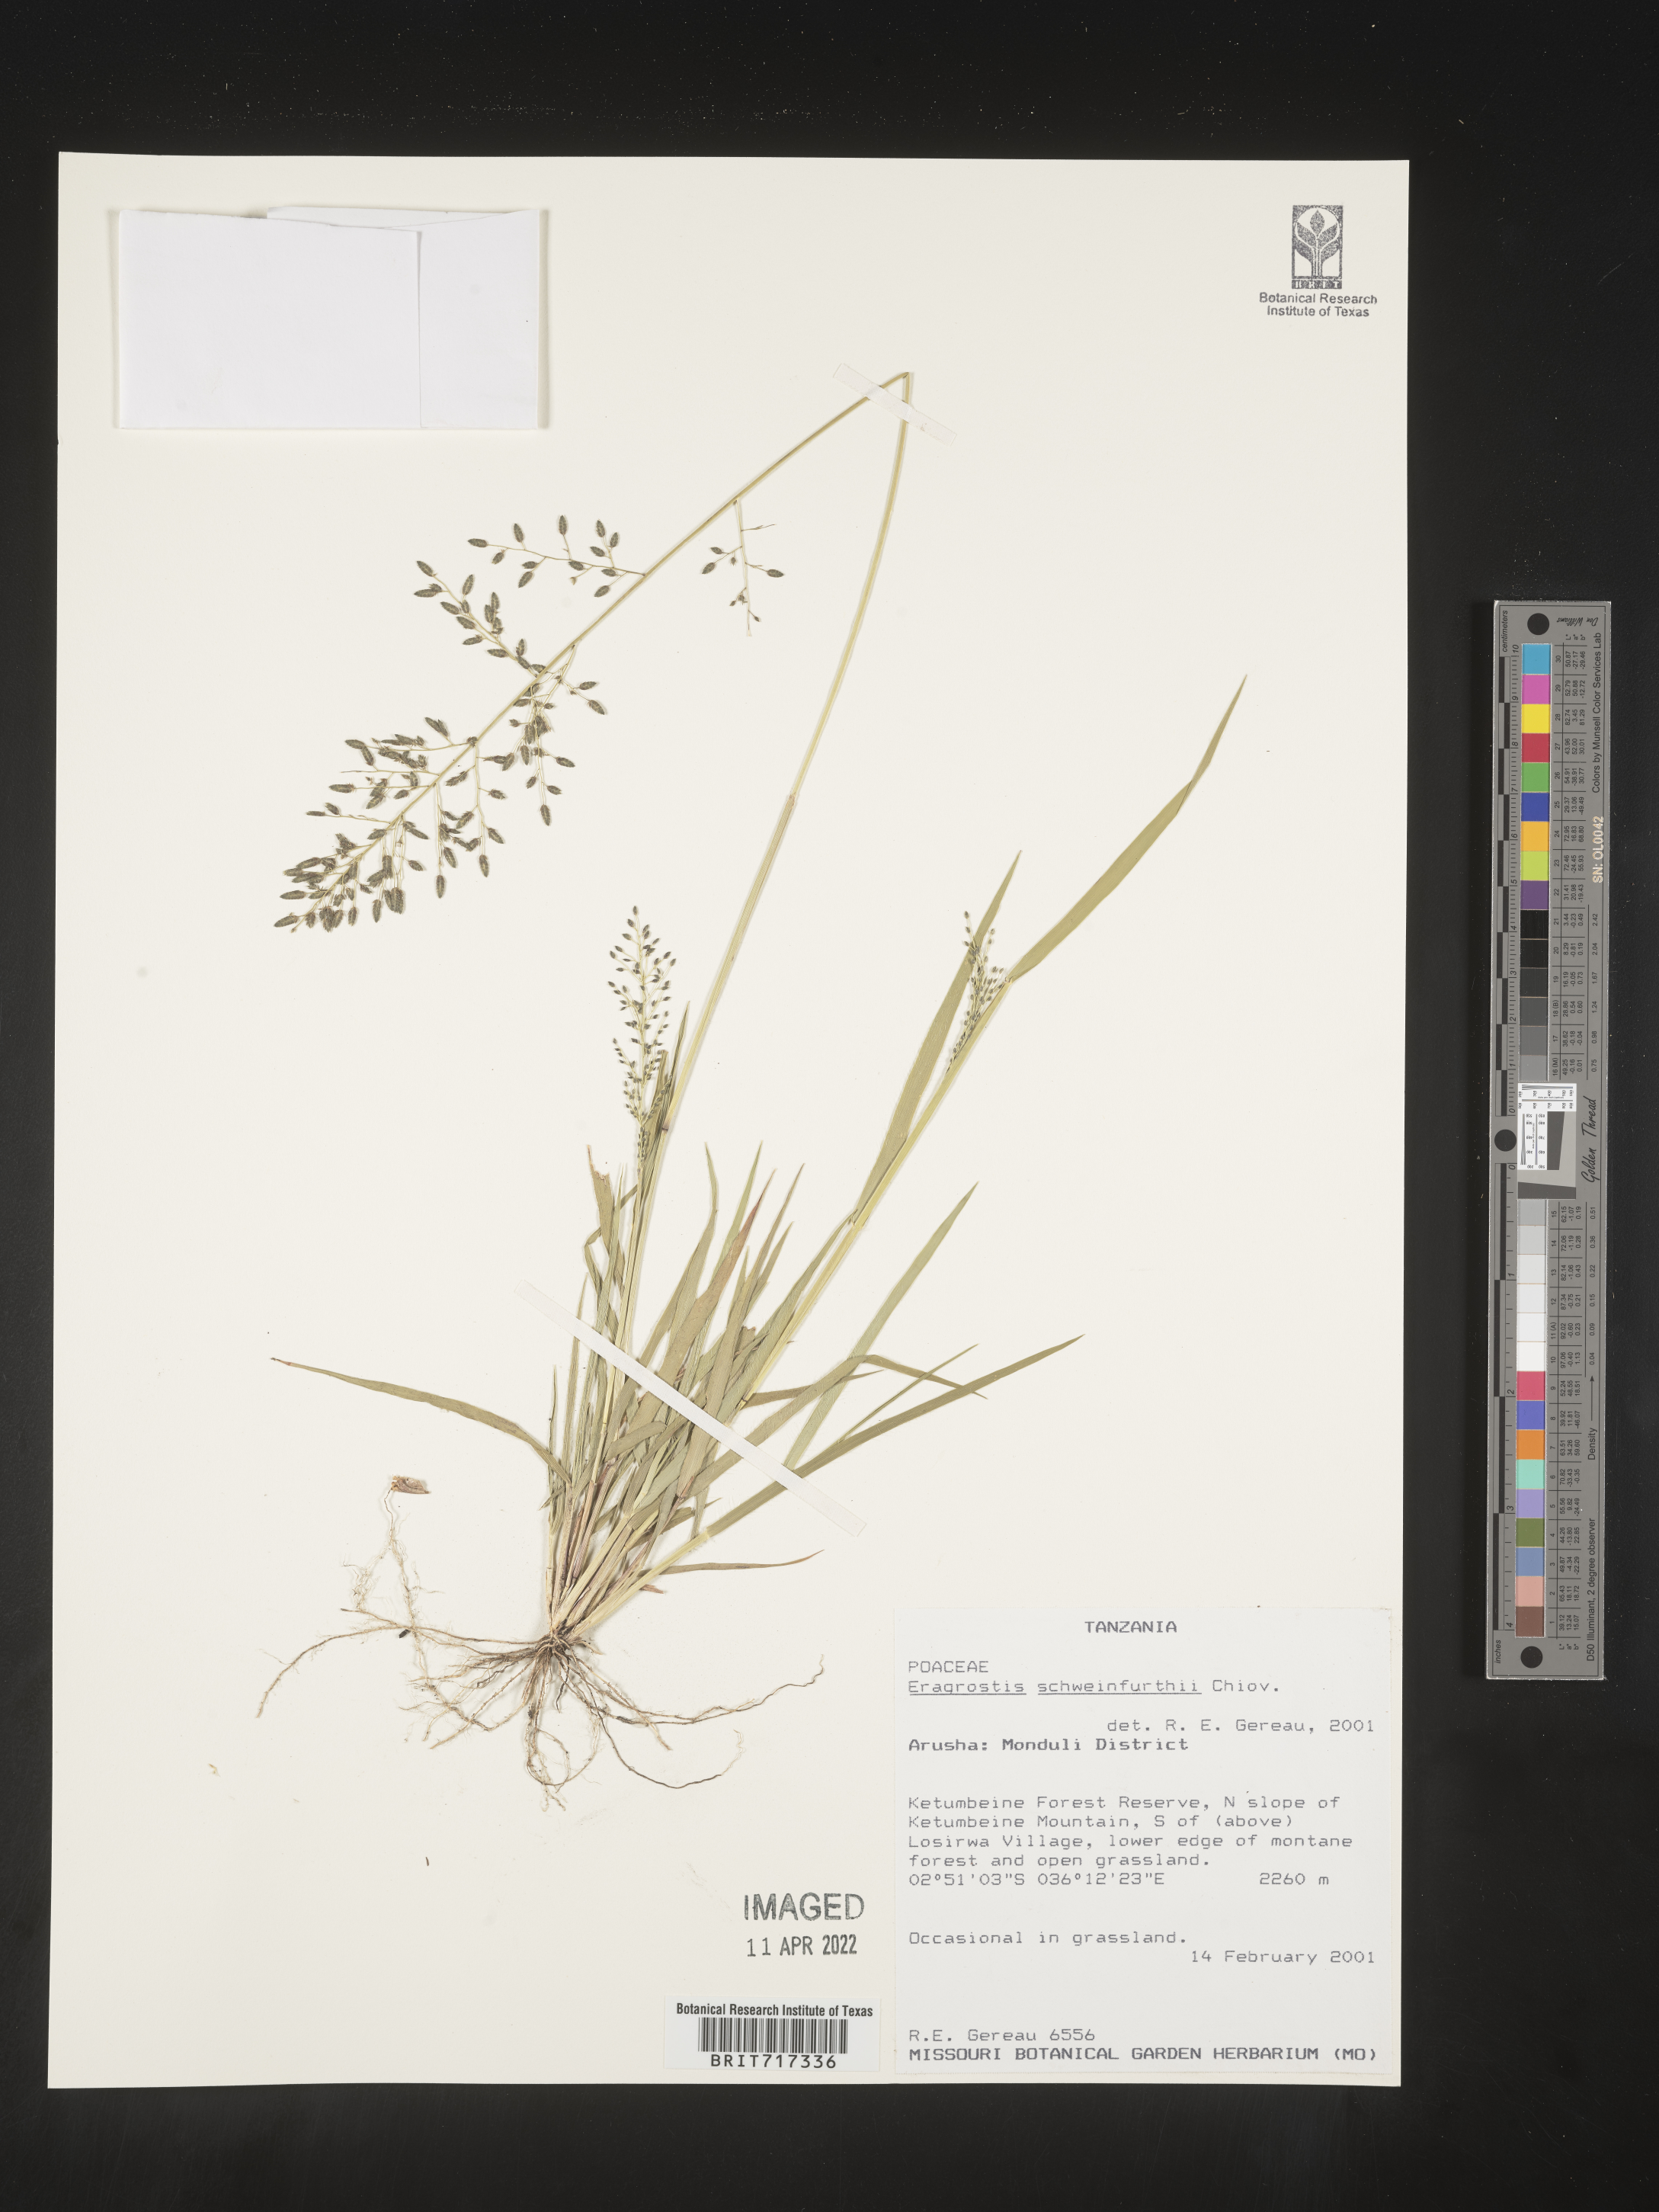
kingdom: Plantae
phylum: Tracheophyta
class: Liliopsida
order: Poales
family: Poaceae
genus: Eragrostis
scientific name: Eragrostis
